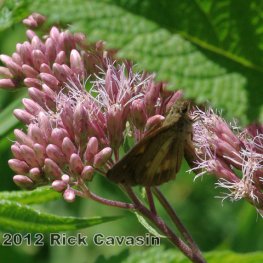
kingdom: Animalia
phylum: Arthropoda
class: Insecta
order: Lepidoptera
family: Hesperiidae
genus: Poanes
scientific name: Poanes viator
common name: Broad-winged Skipper
